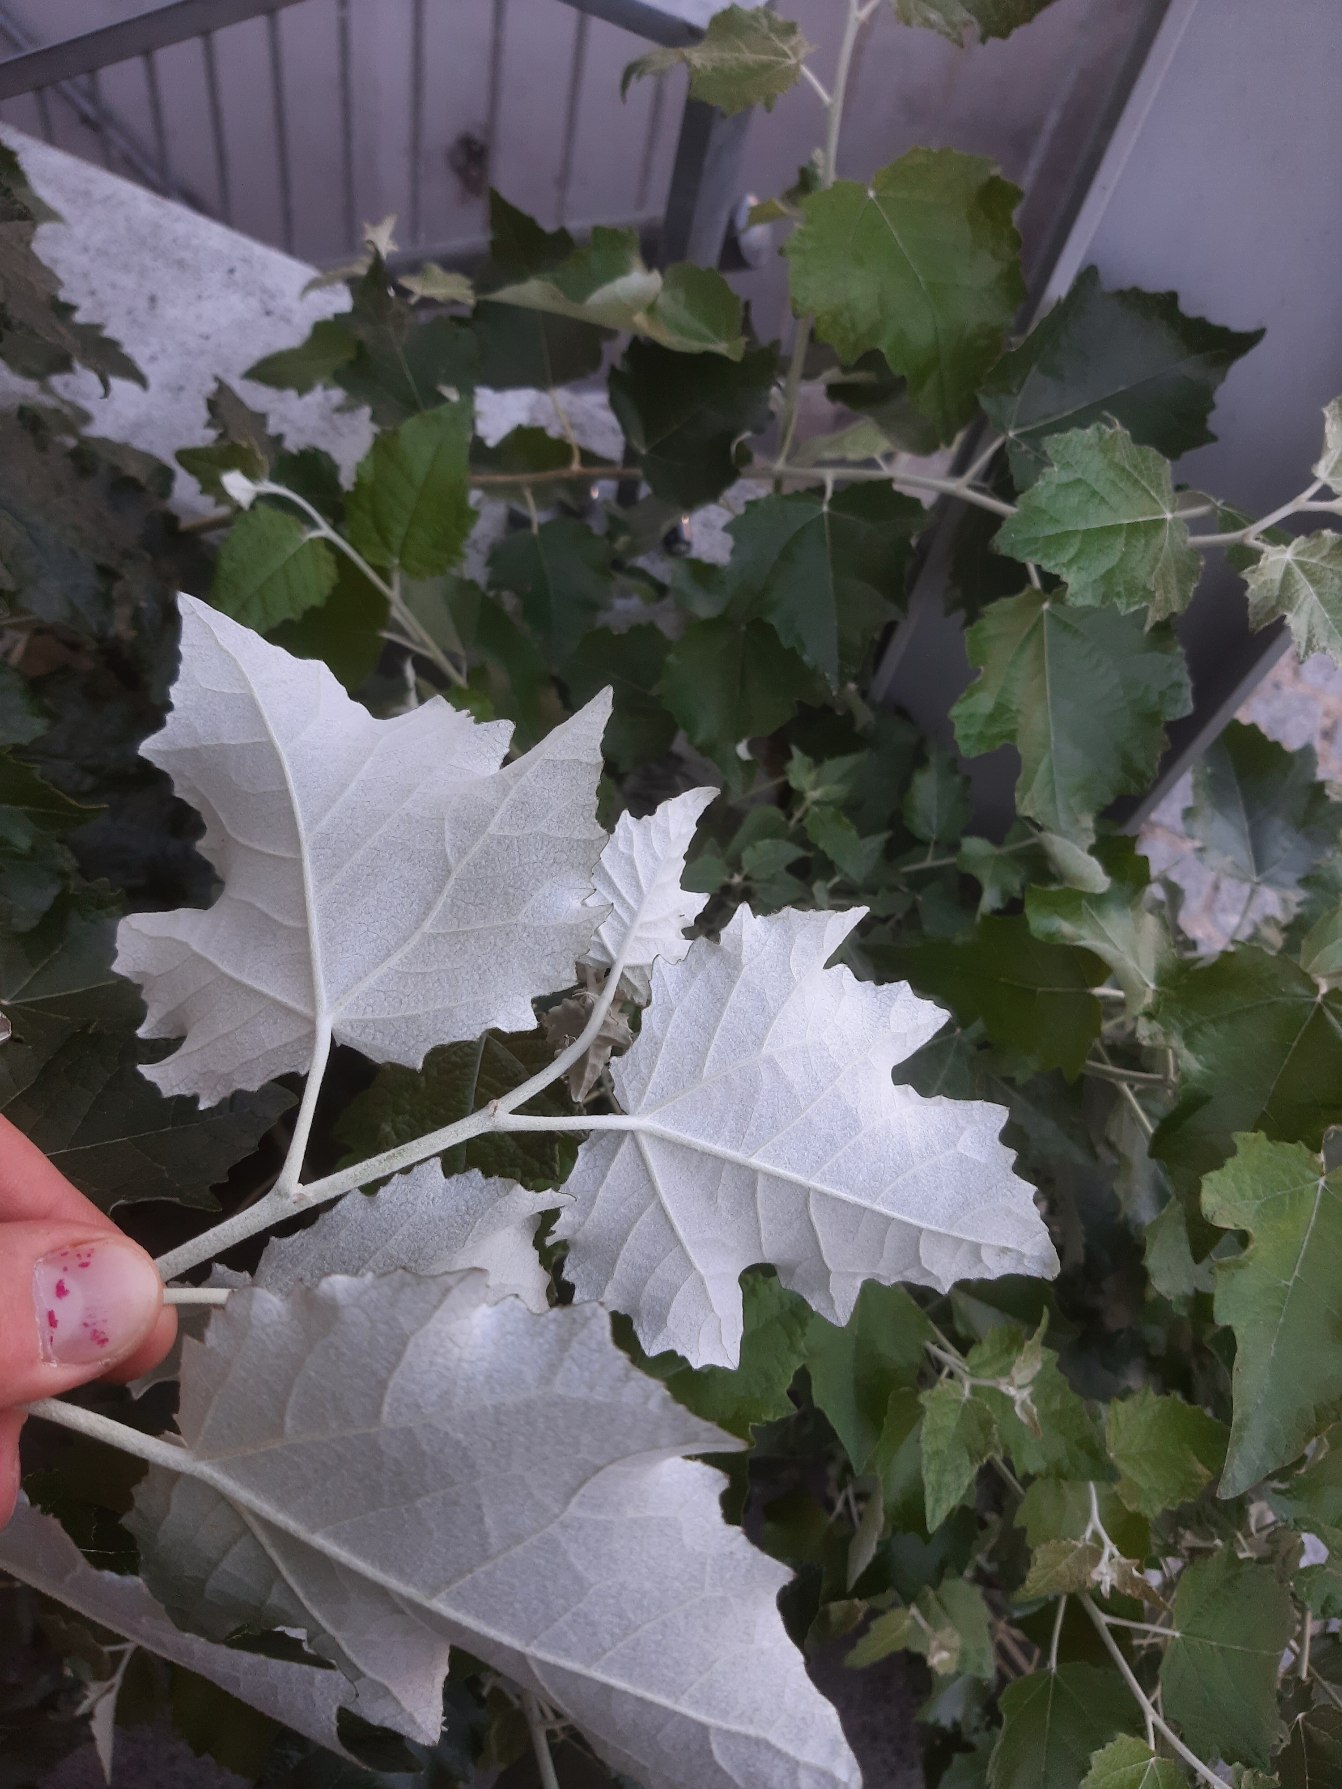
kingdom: Plantae
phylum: Tracheophyta
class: Magnoliopsida
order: Malpighiales
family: Salicaceae
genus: Populus
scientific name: Populus alba
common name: Sølv-poppel
